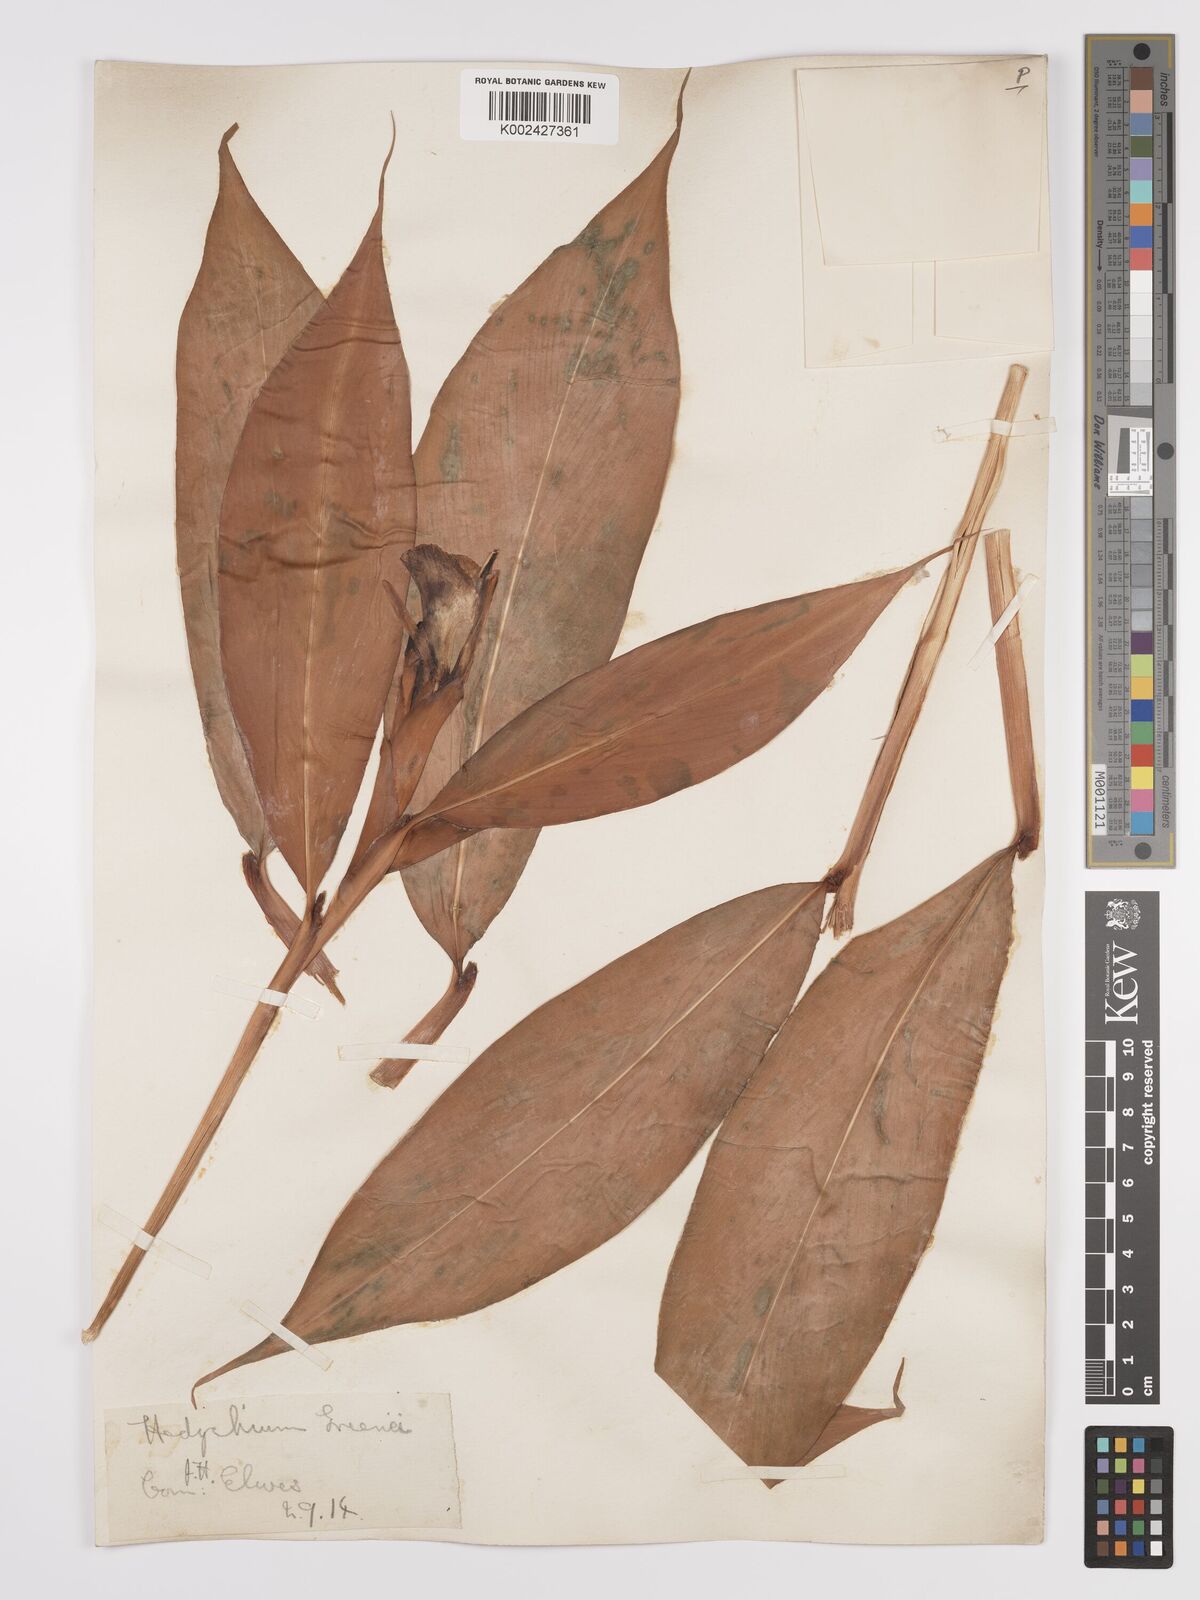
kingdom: Plantae
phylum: Tracheophyta
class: Liliopsida
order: Zingiberales
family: Zingiberaceae
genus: Hedychium
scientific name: Hedychium greenii
